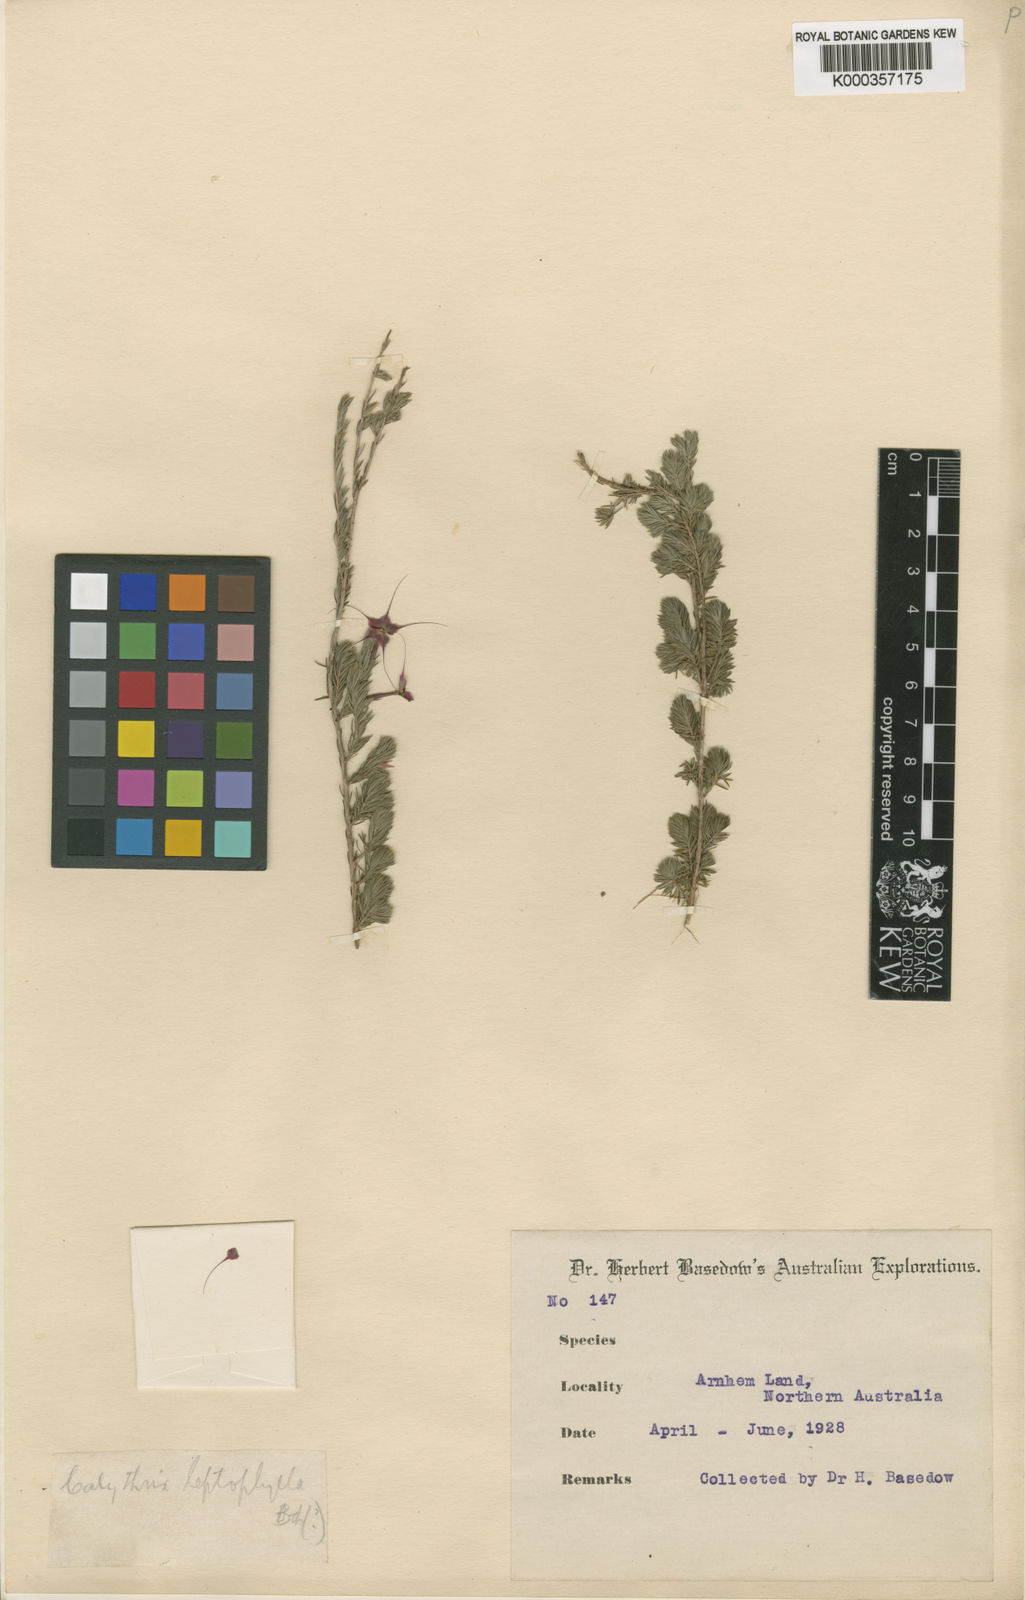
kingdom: Plantae
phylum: Tracheophyta
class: Magnoliopsida
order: Myrtales
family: Myrtaceae
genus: Calytrix
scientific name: Calytrix leptophylla
